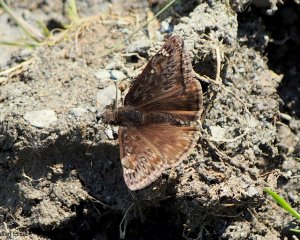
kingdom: Animalia
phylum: Arthropoda
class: Insecta
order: Lepidoptera
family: Hesperiidae
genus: Gesta
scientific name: Gesta
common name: Juvenal's Duskywing
